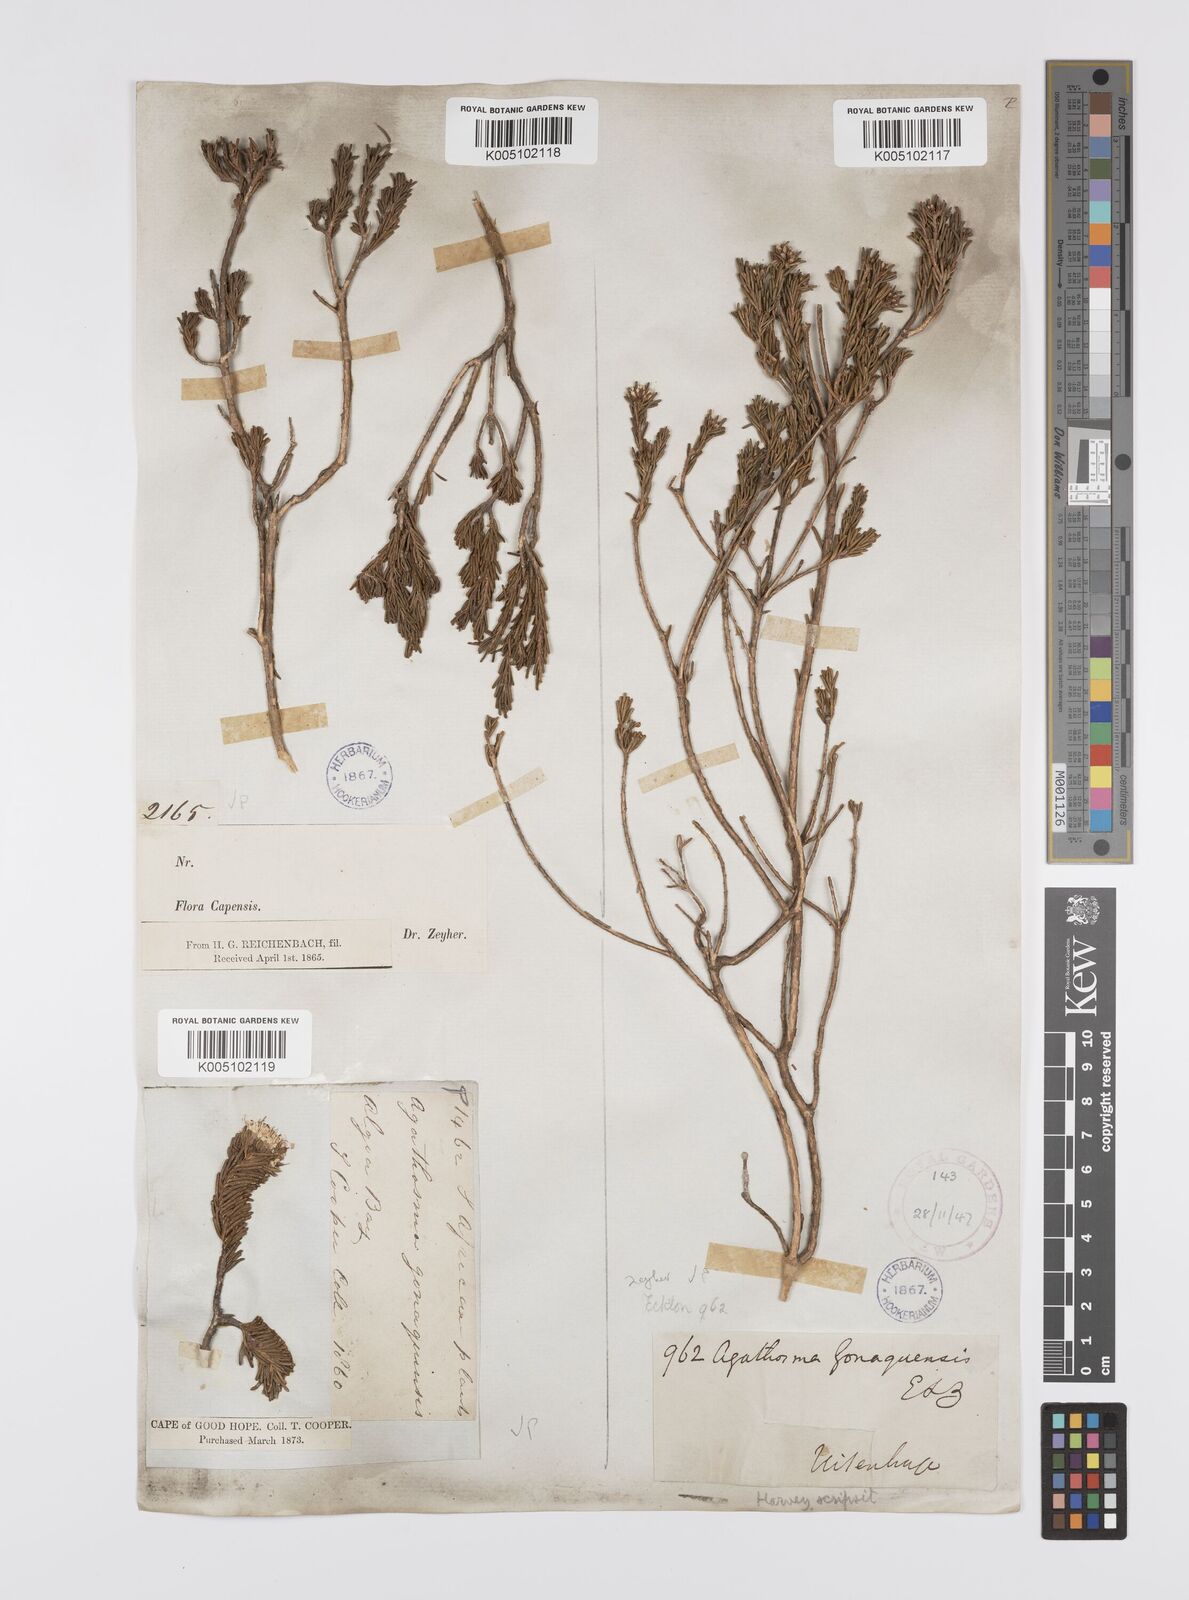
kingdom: Plantae
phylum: Tracheophyta
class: Magnoliopsida
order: Sapindales
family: Rutaceae
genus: Agathosma
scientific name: Agathosma gonaquensis
